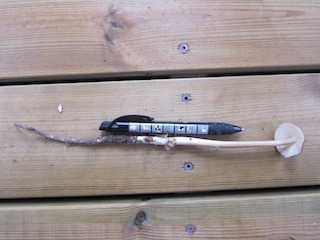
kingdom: Fungi
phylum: Basidiomycota
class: Agaricomycetes
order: Agaricales
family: Physalacriaceae
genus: Hymenopellis
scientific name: Hymenopellis radicata
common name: almindelig pælerodshat
